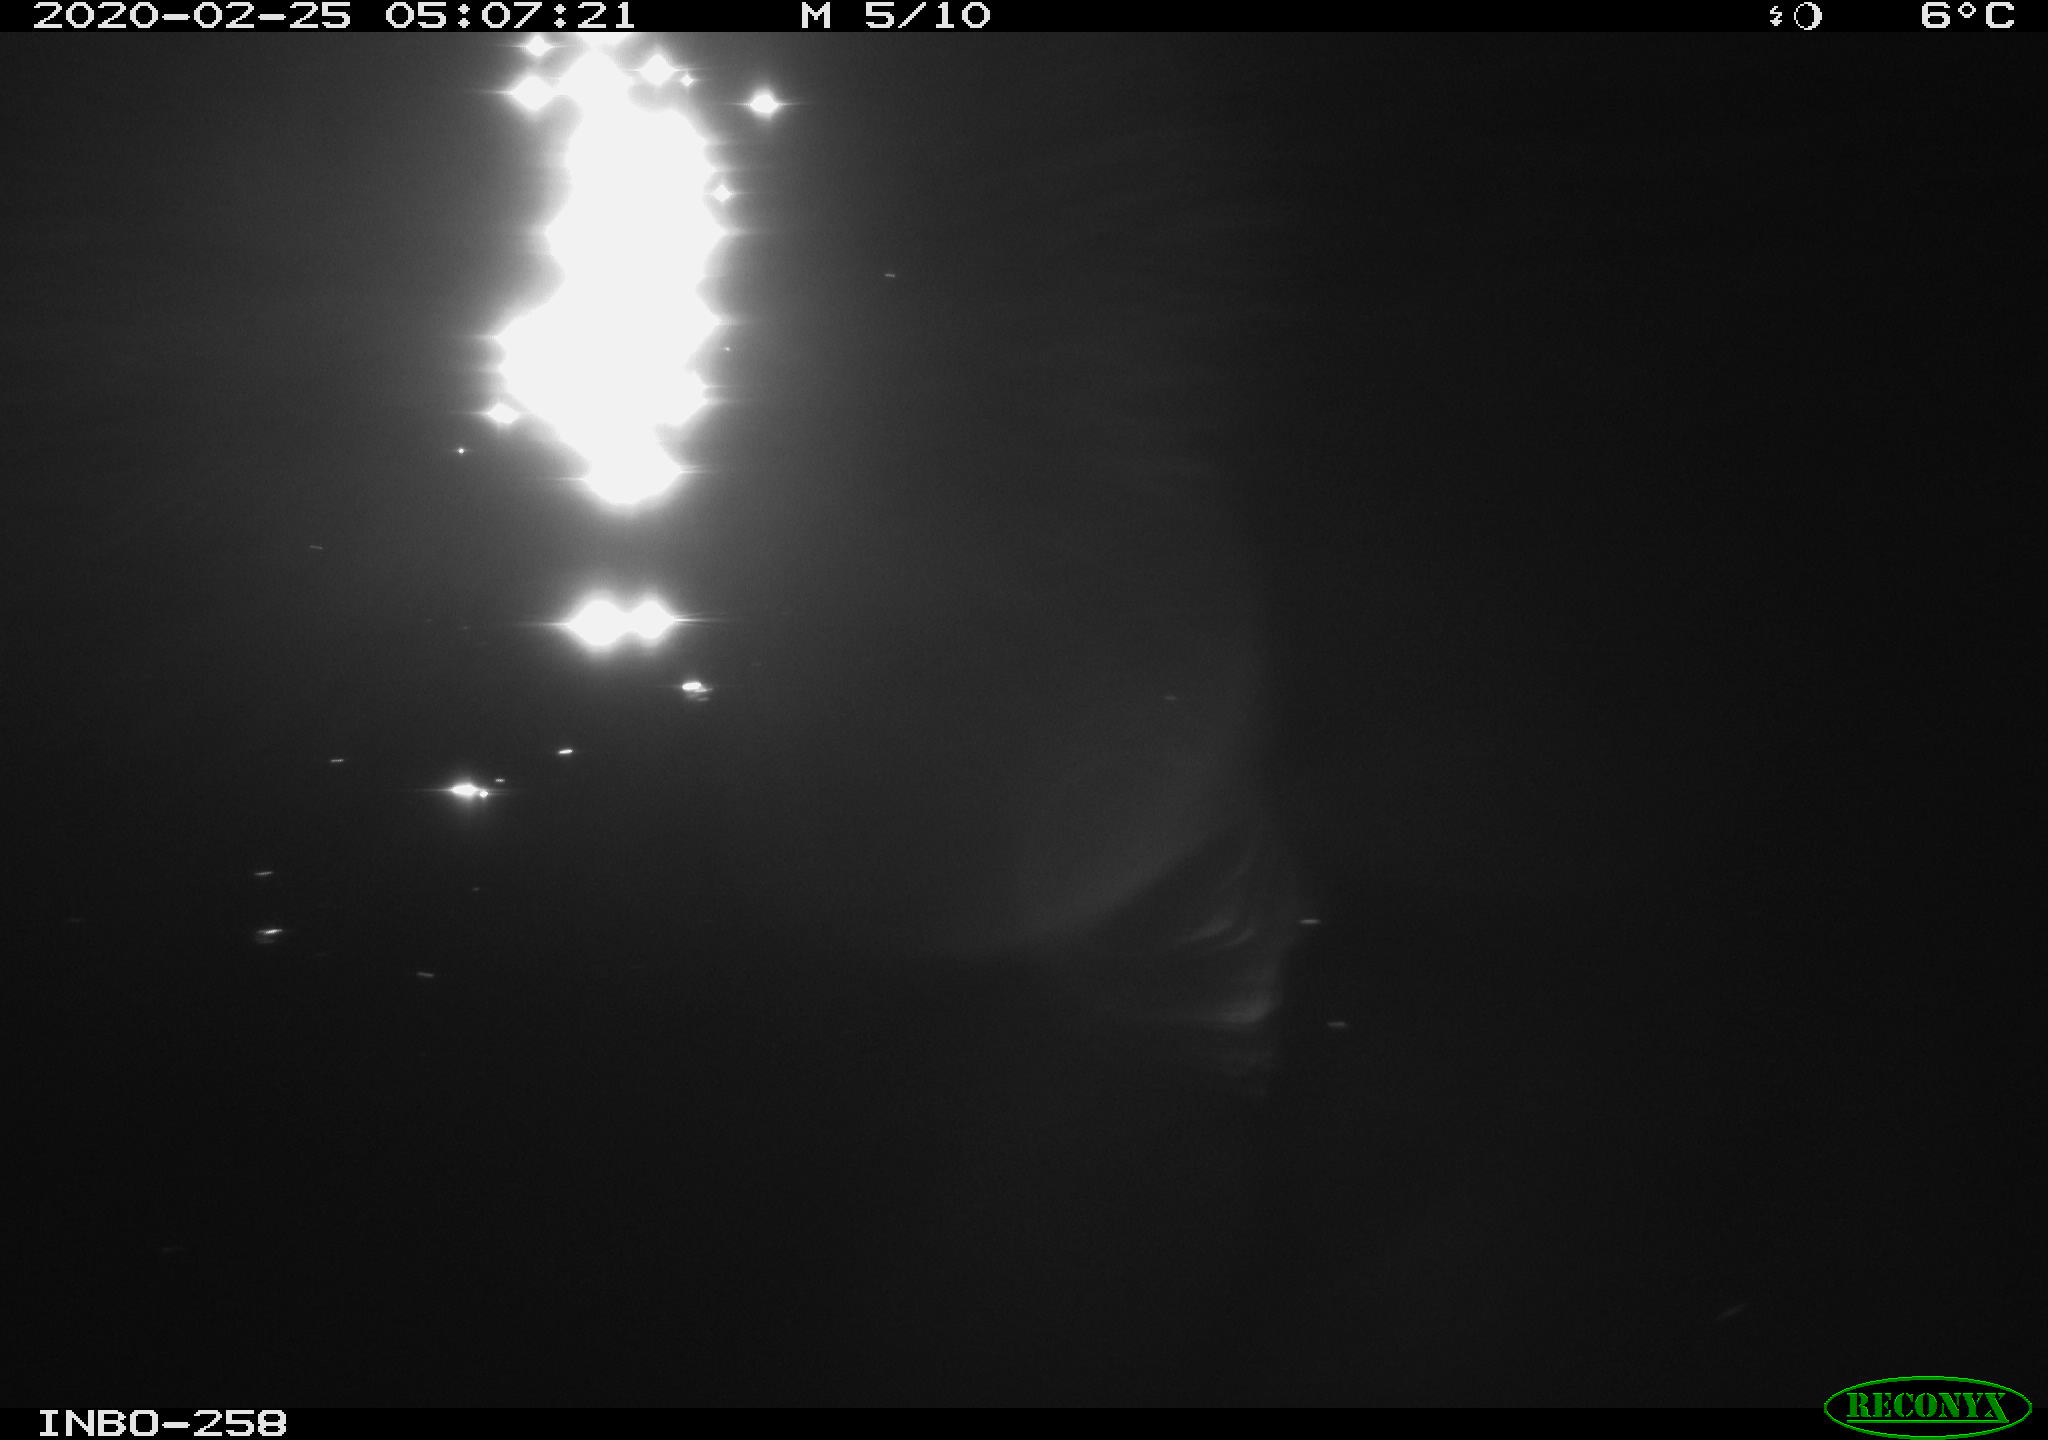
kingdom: Animalia
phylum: Chordata
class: Aves
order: Anseriformes
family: Anatidae
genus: Anas
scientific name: Anas platyrhynchos
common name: Mallard
